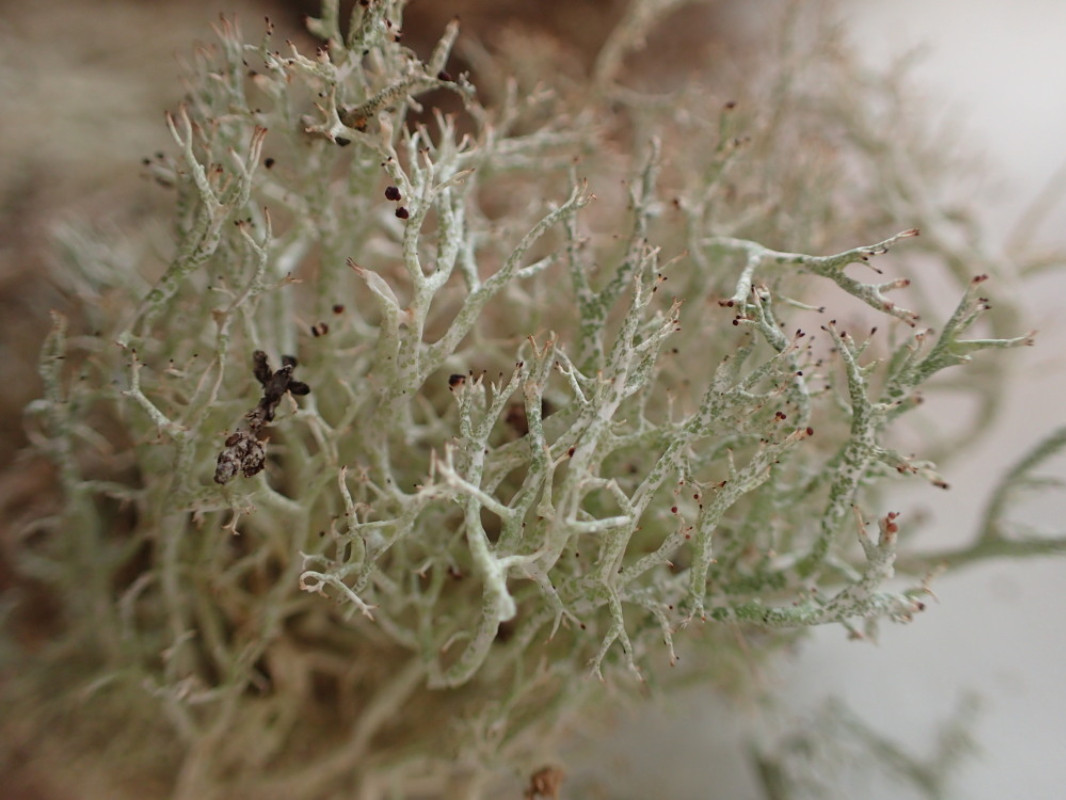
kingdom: Fungi
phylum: Ascomycota
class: Lecanoromycetes
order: Lecanorales
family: Cladoniaceae
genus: Cladonia
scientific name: Cladonia rangiformis
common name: spættet bægerlav
